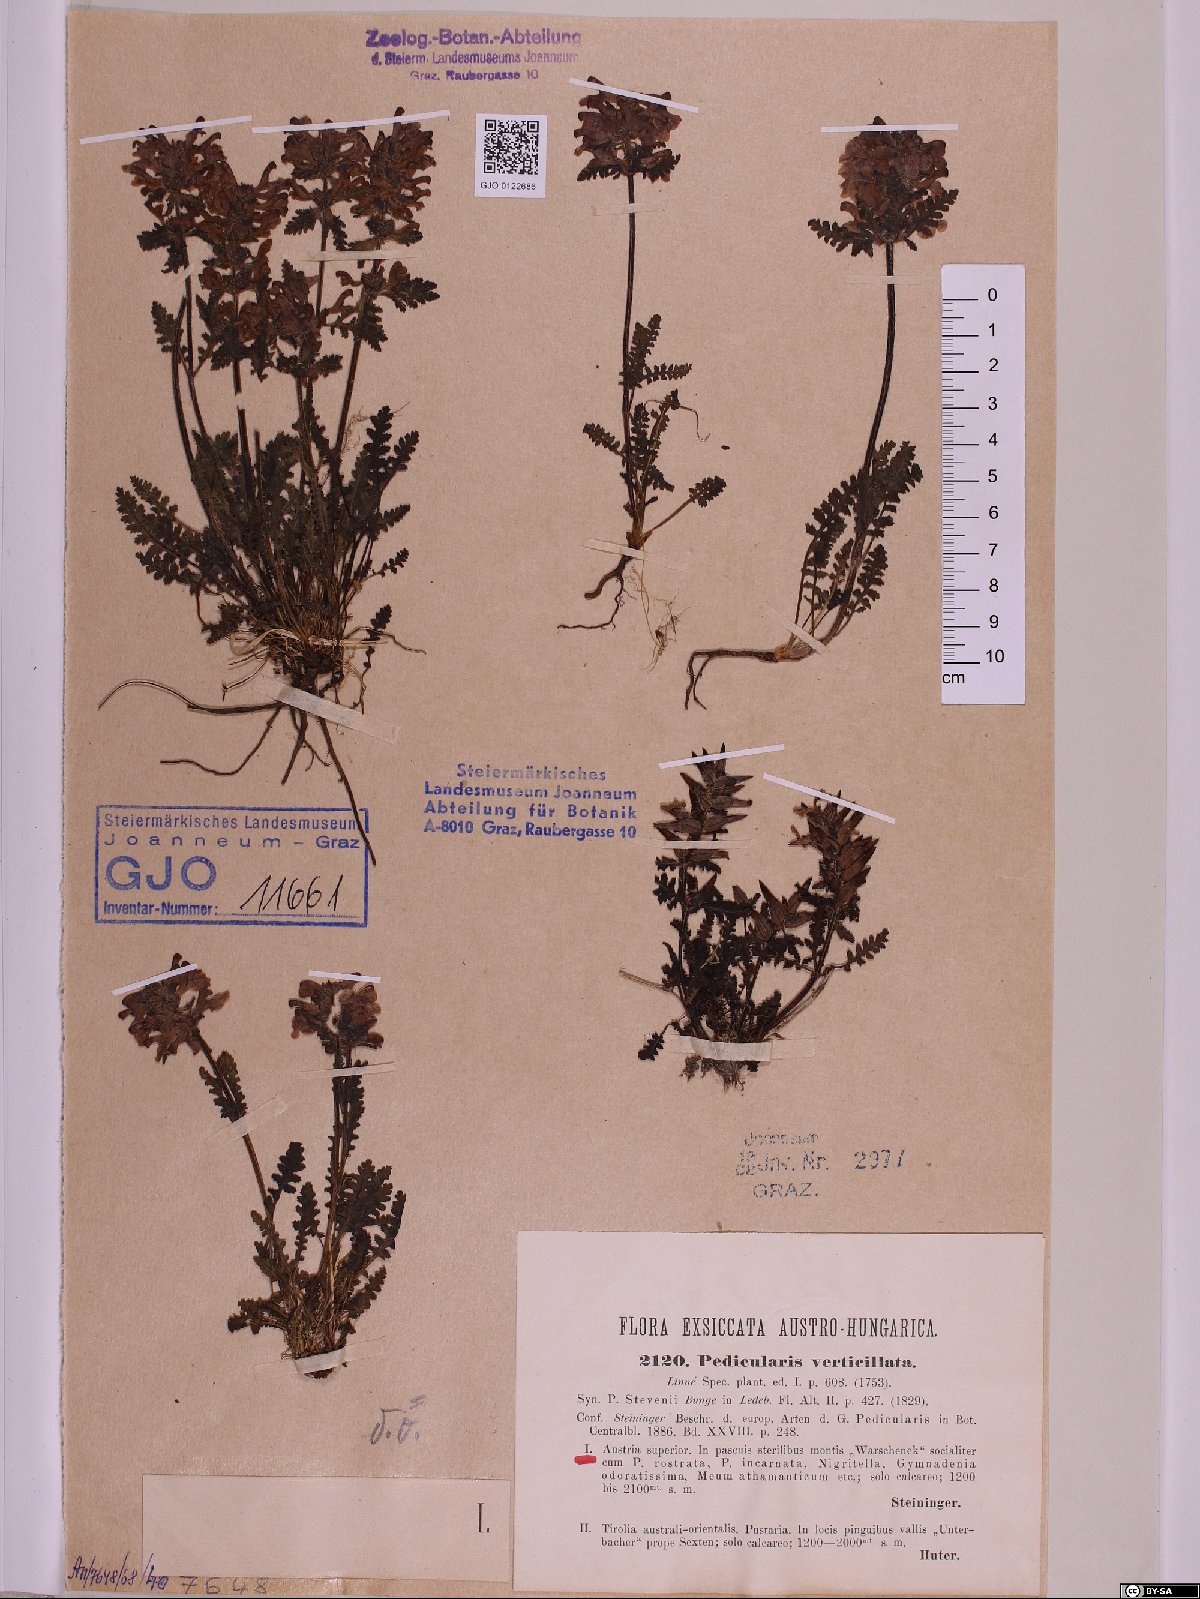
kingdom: Plantae
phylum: Tracheophyta
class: Magnoliopsida
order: Lamiales
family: Orobanchaceae
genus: Pedicularis
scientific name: Pedicularis verticillata
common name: Whorled lousewort
